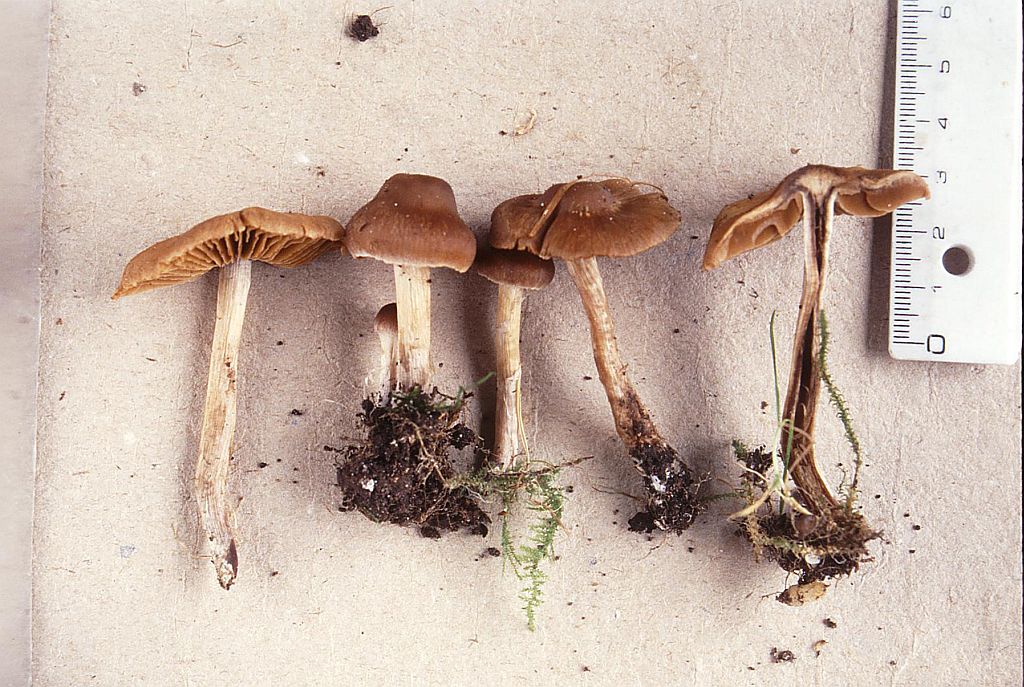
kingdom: Fungi
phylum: Basidiomycota
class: Agaricomycetes
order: Agaricales
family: Cortinariaceae
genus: Cortinarius
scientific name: Cortinarius incisior
